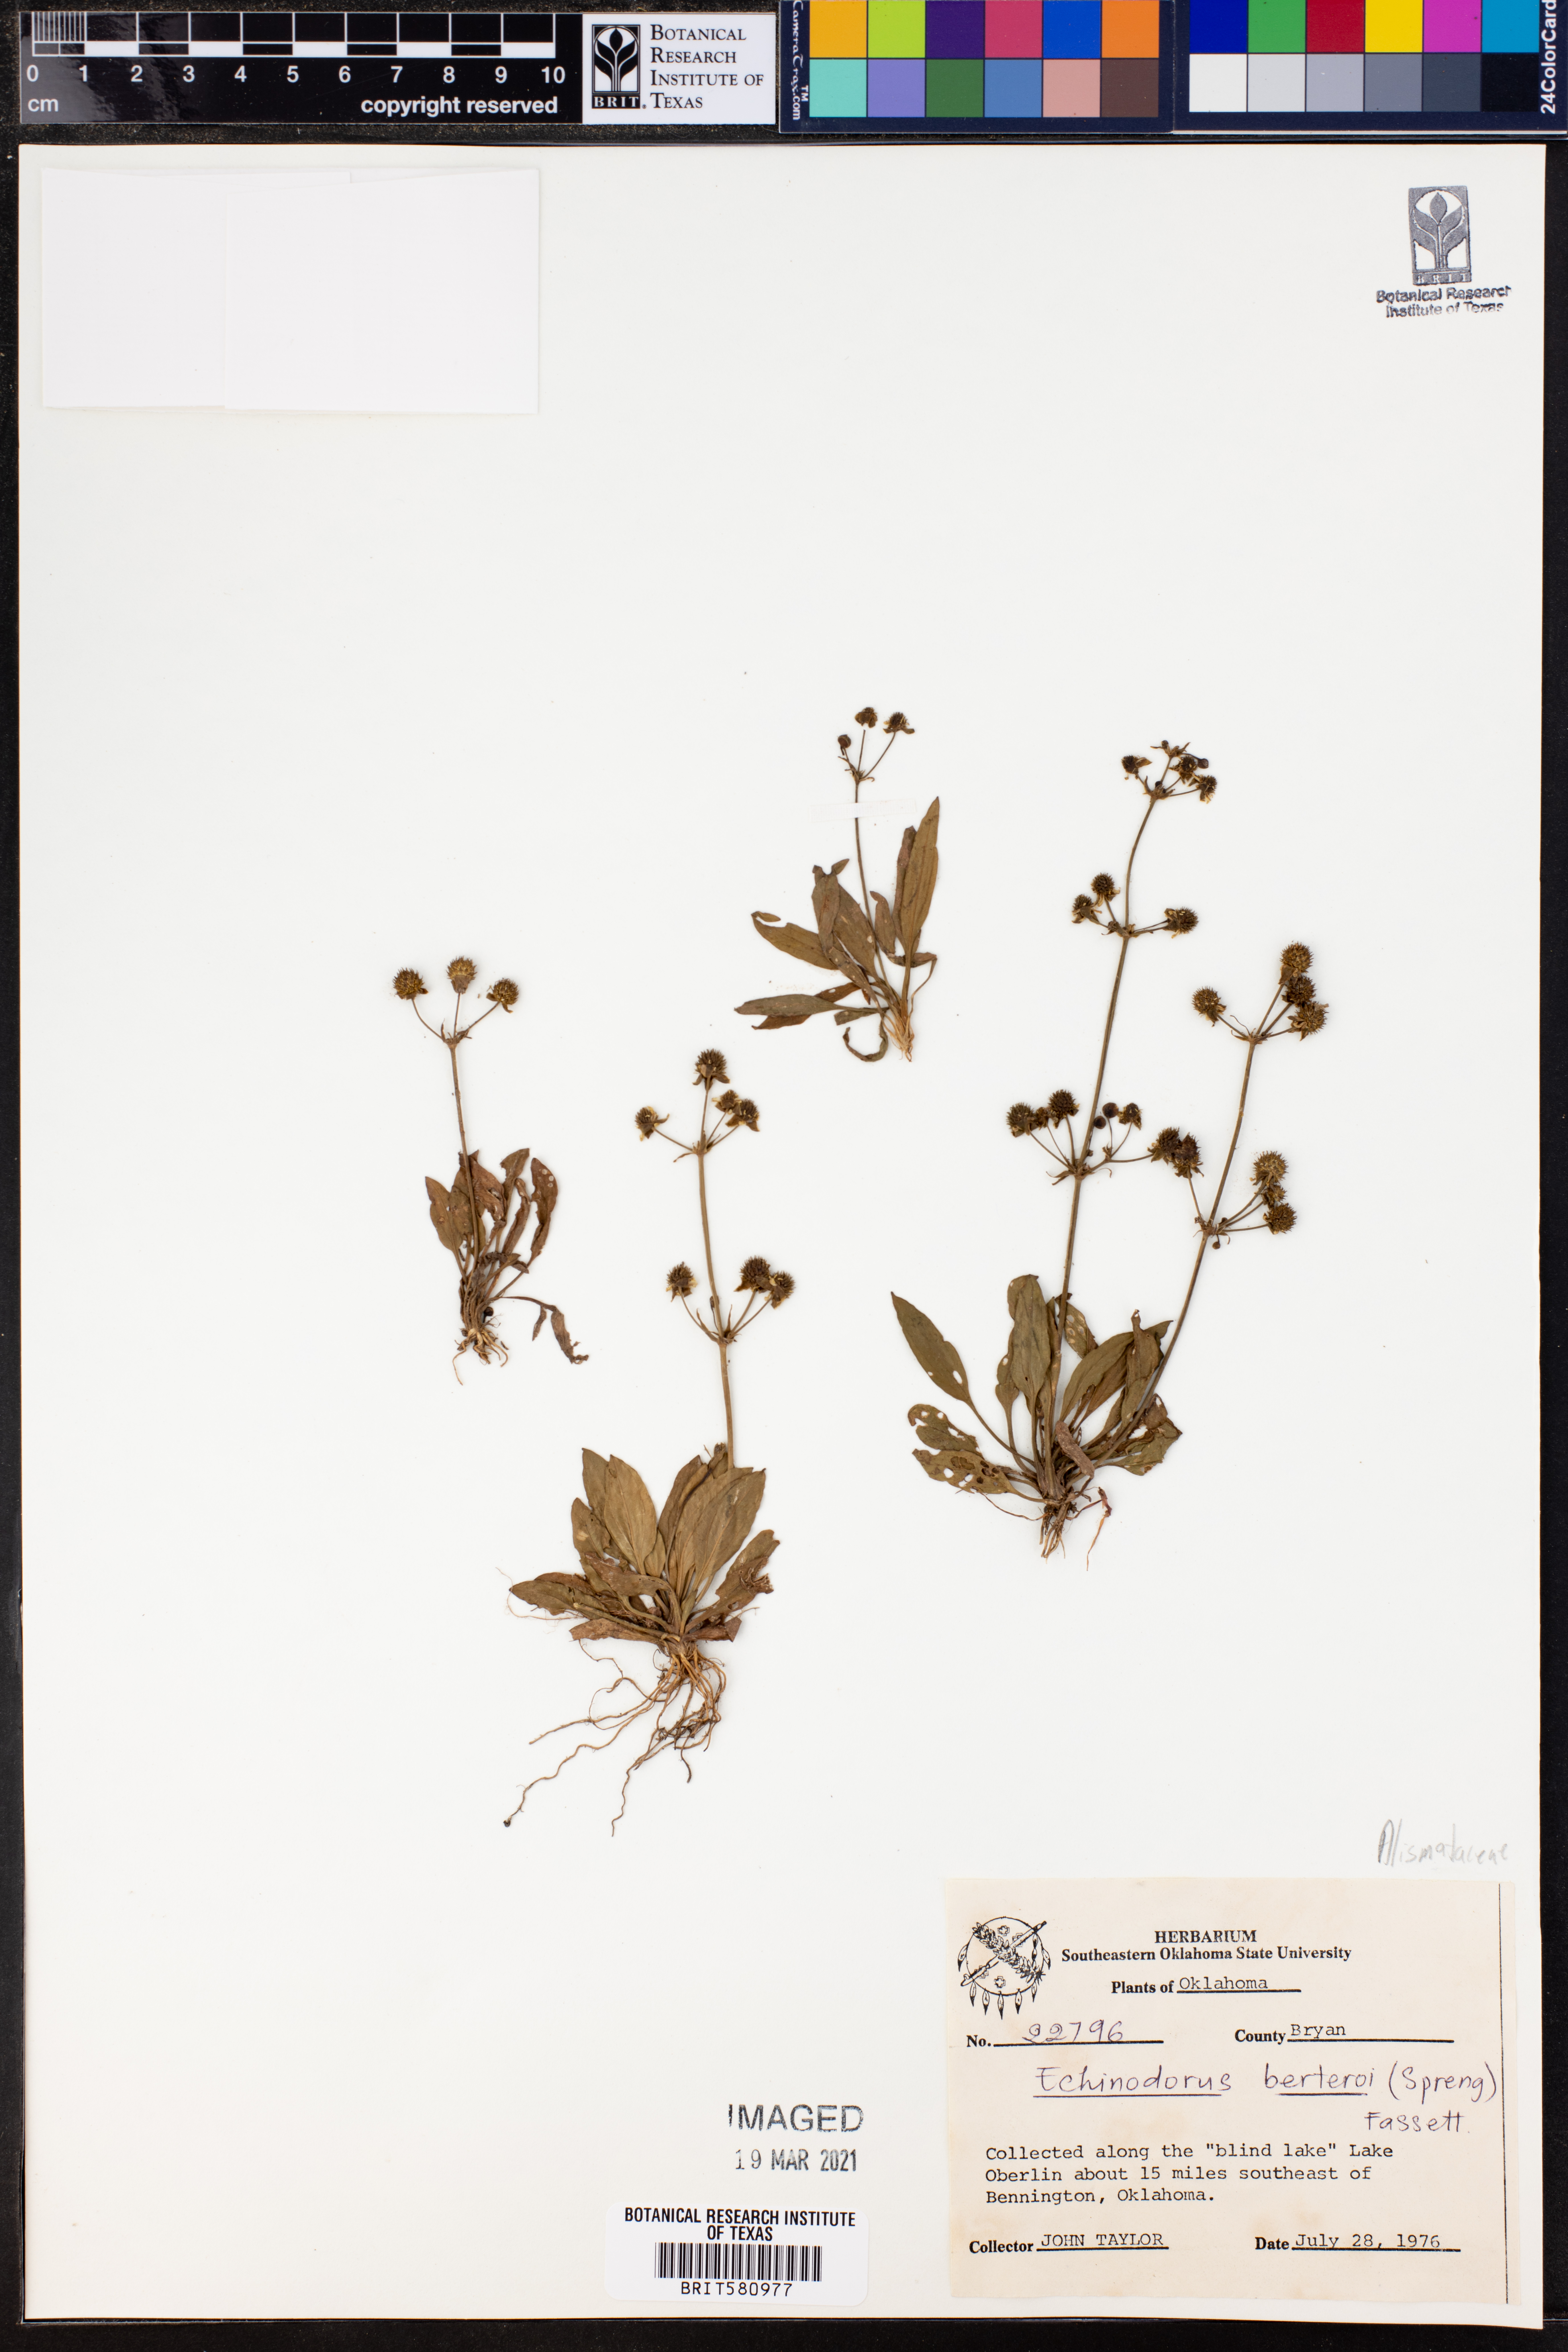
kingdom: Plantae
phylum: Tracheophyta
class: Liliopsida
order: Alismatales
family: Alismataceae
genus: Echinodorus
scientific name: Echinodorus berteroi
